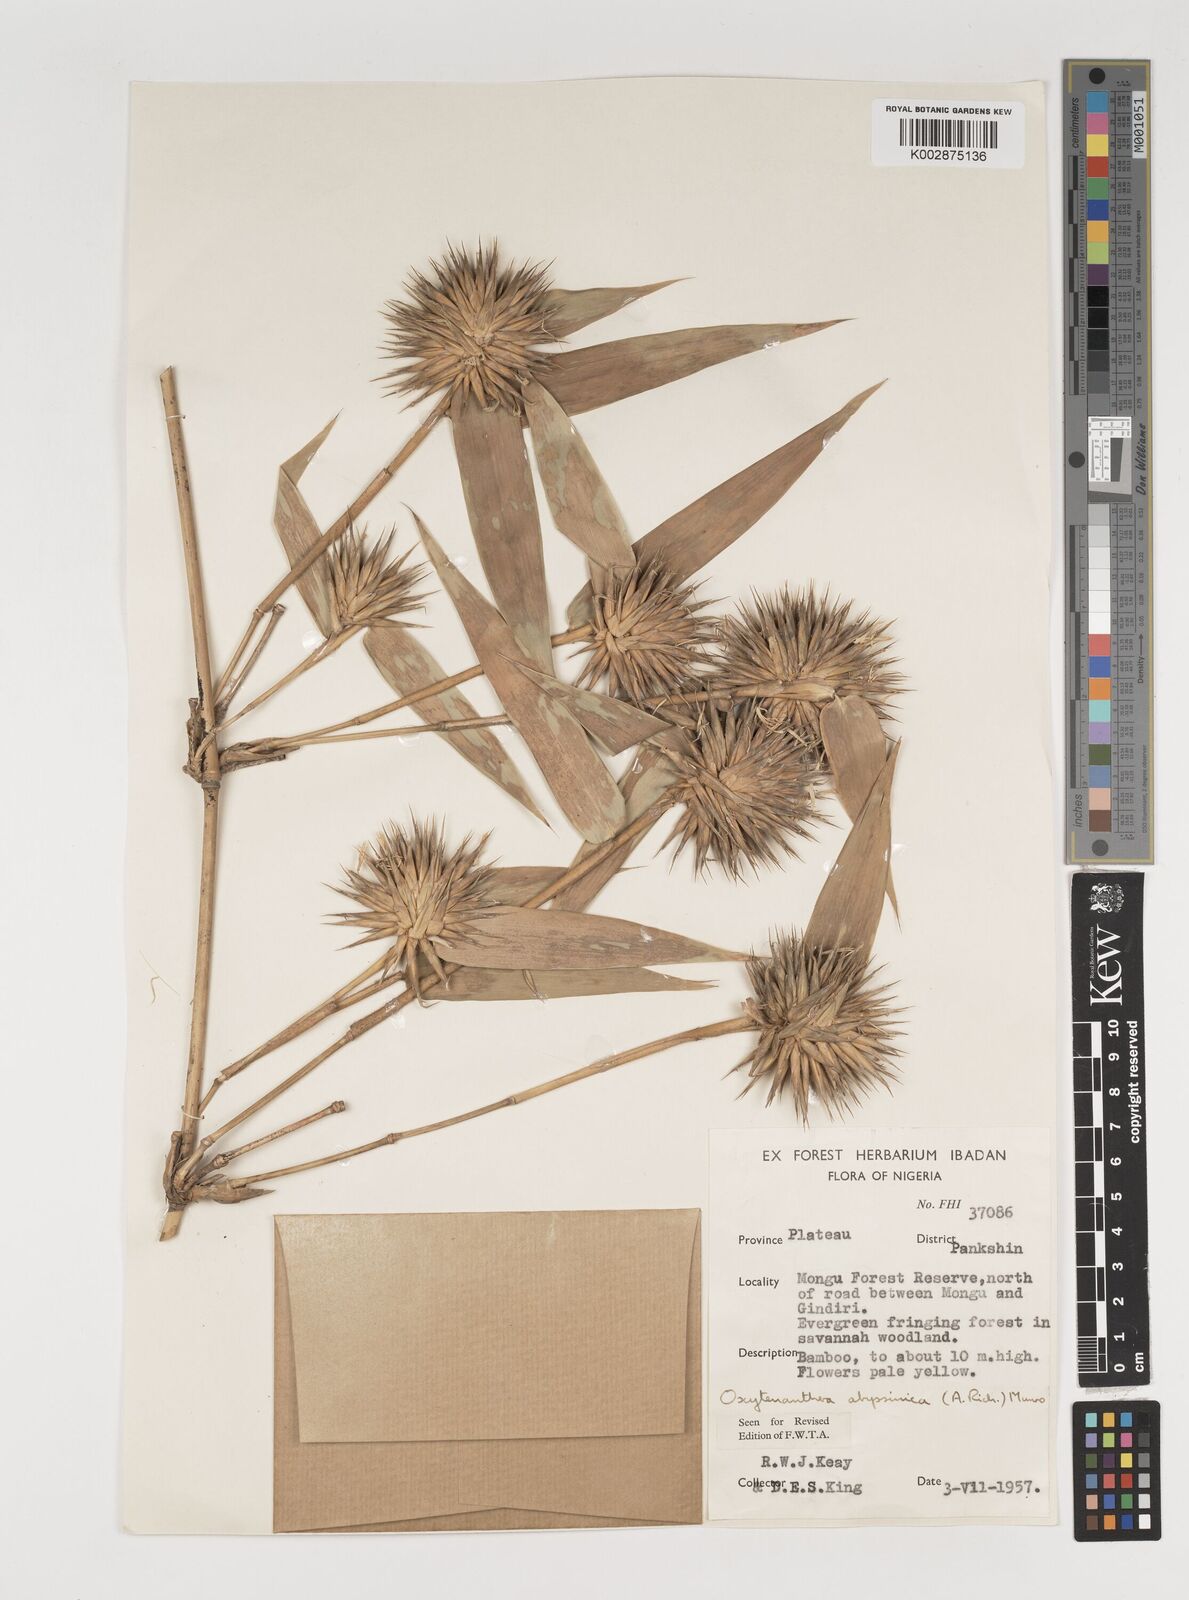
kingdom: Plantae
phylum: Tracheophyta
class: Liliopsida
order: Poales
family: Poaceae
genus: Oxytenanthera
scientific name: Oxytenanthera abyssinica
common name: Wine bamboo
